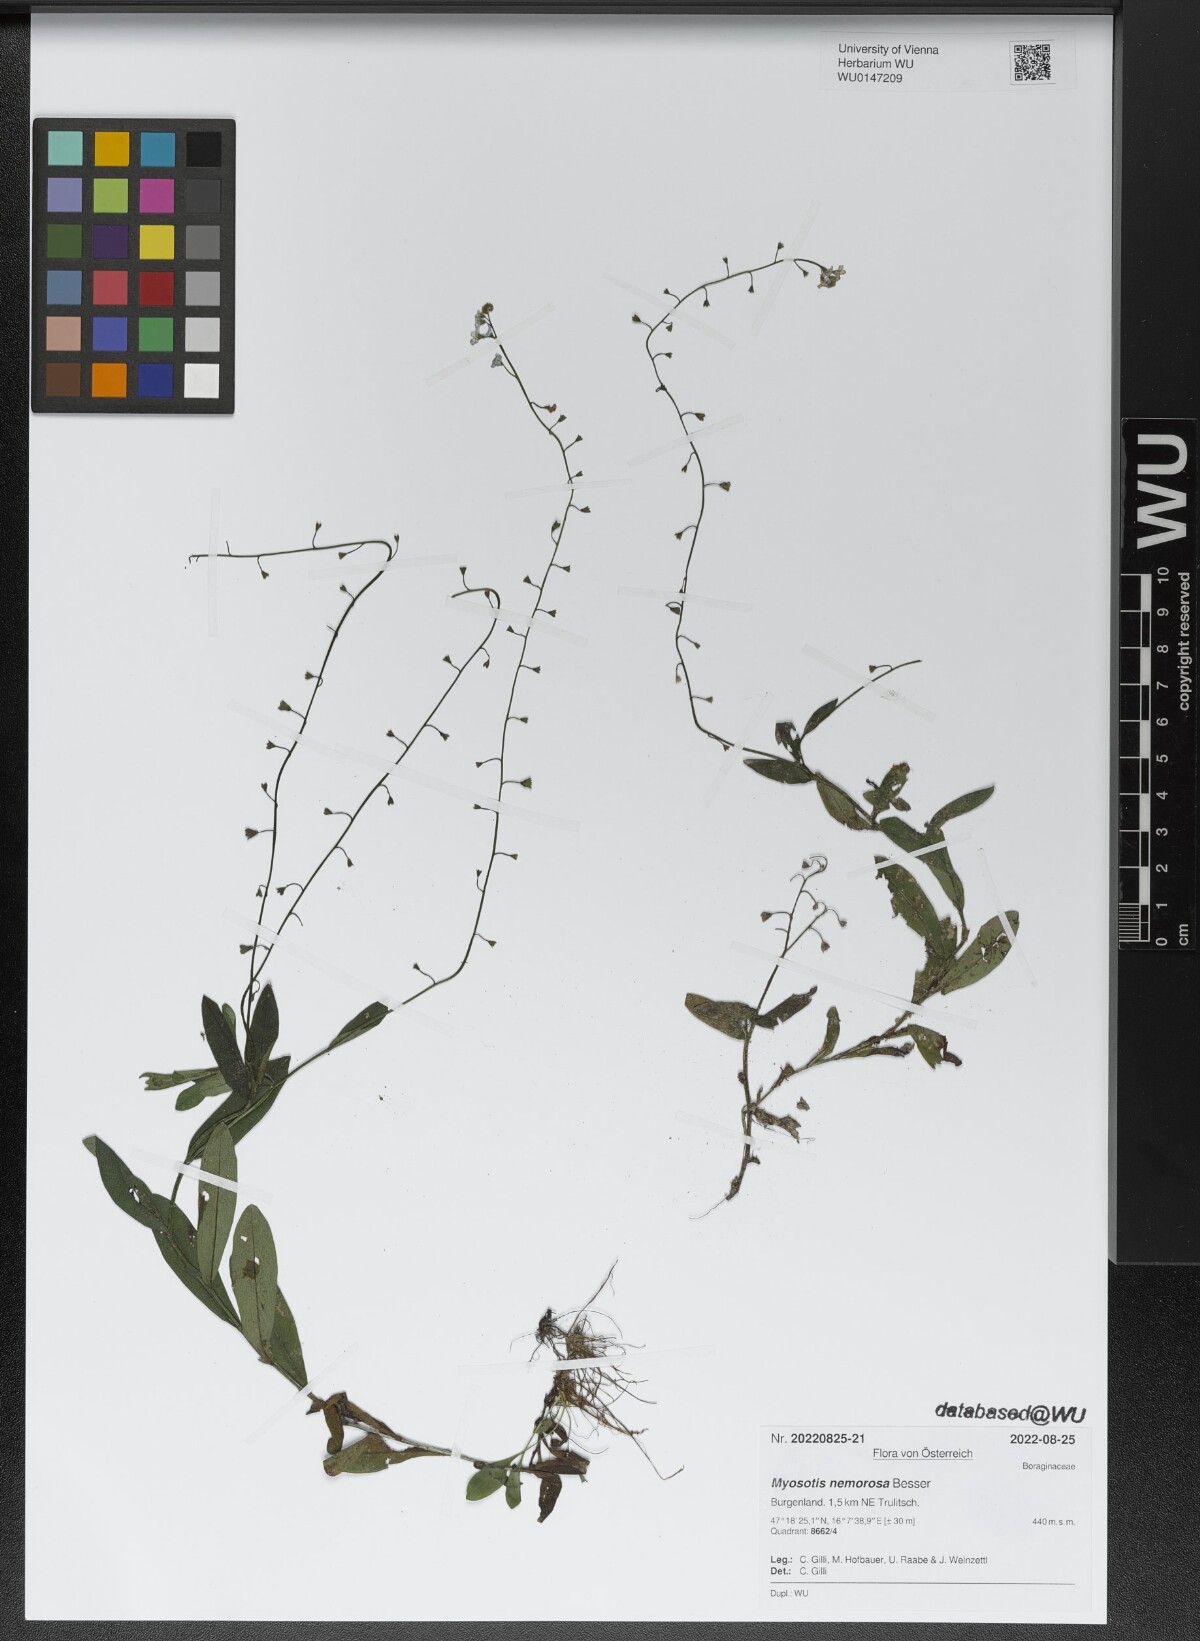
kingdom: Plantae
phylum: Tracheophyta
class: Magnoliopsida
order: Boraginales
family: Boraginaceae
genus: Myosotis
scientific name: Myosotis nemorosa
